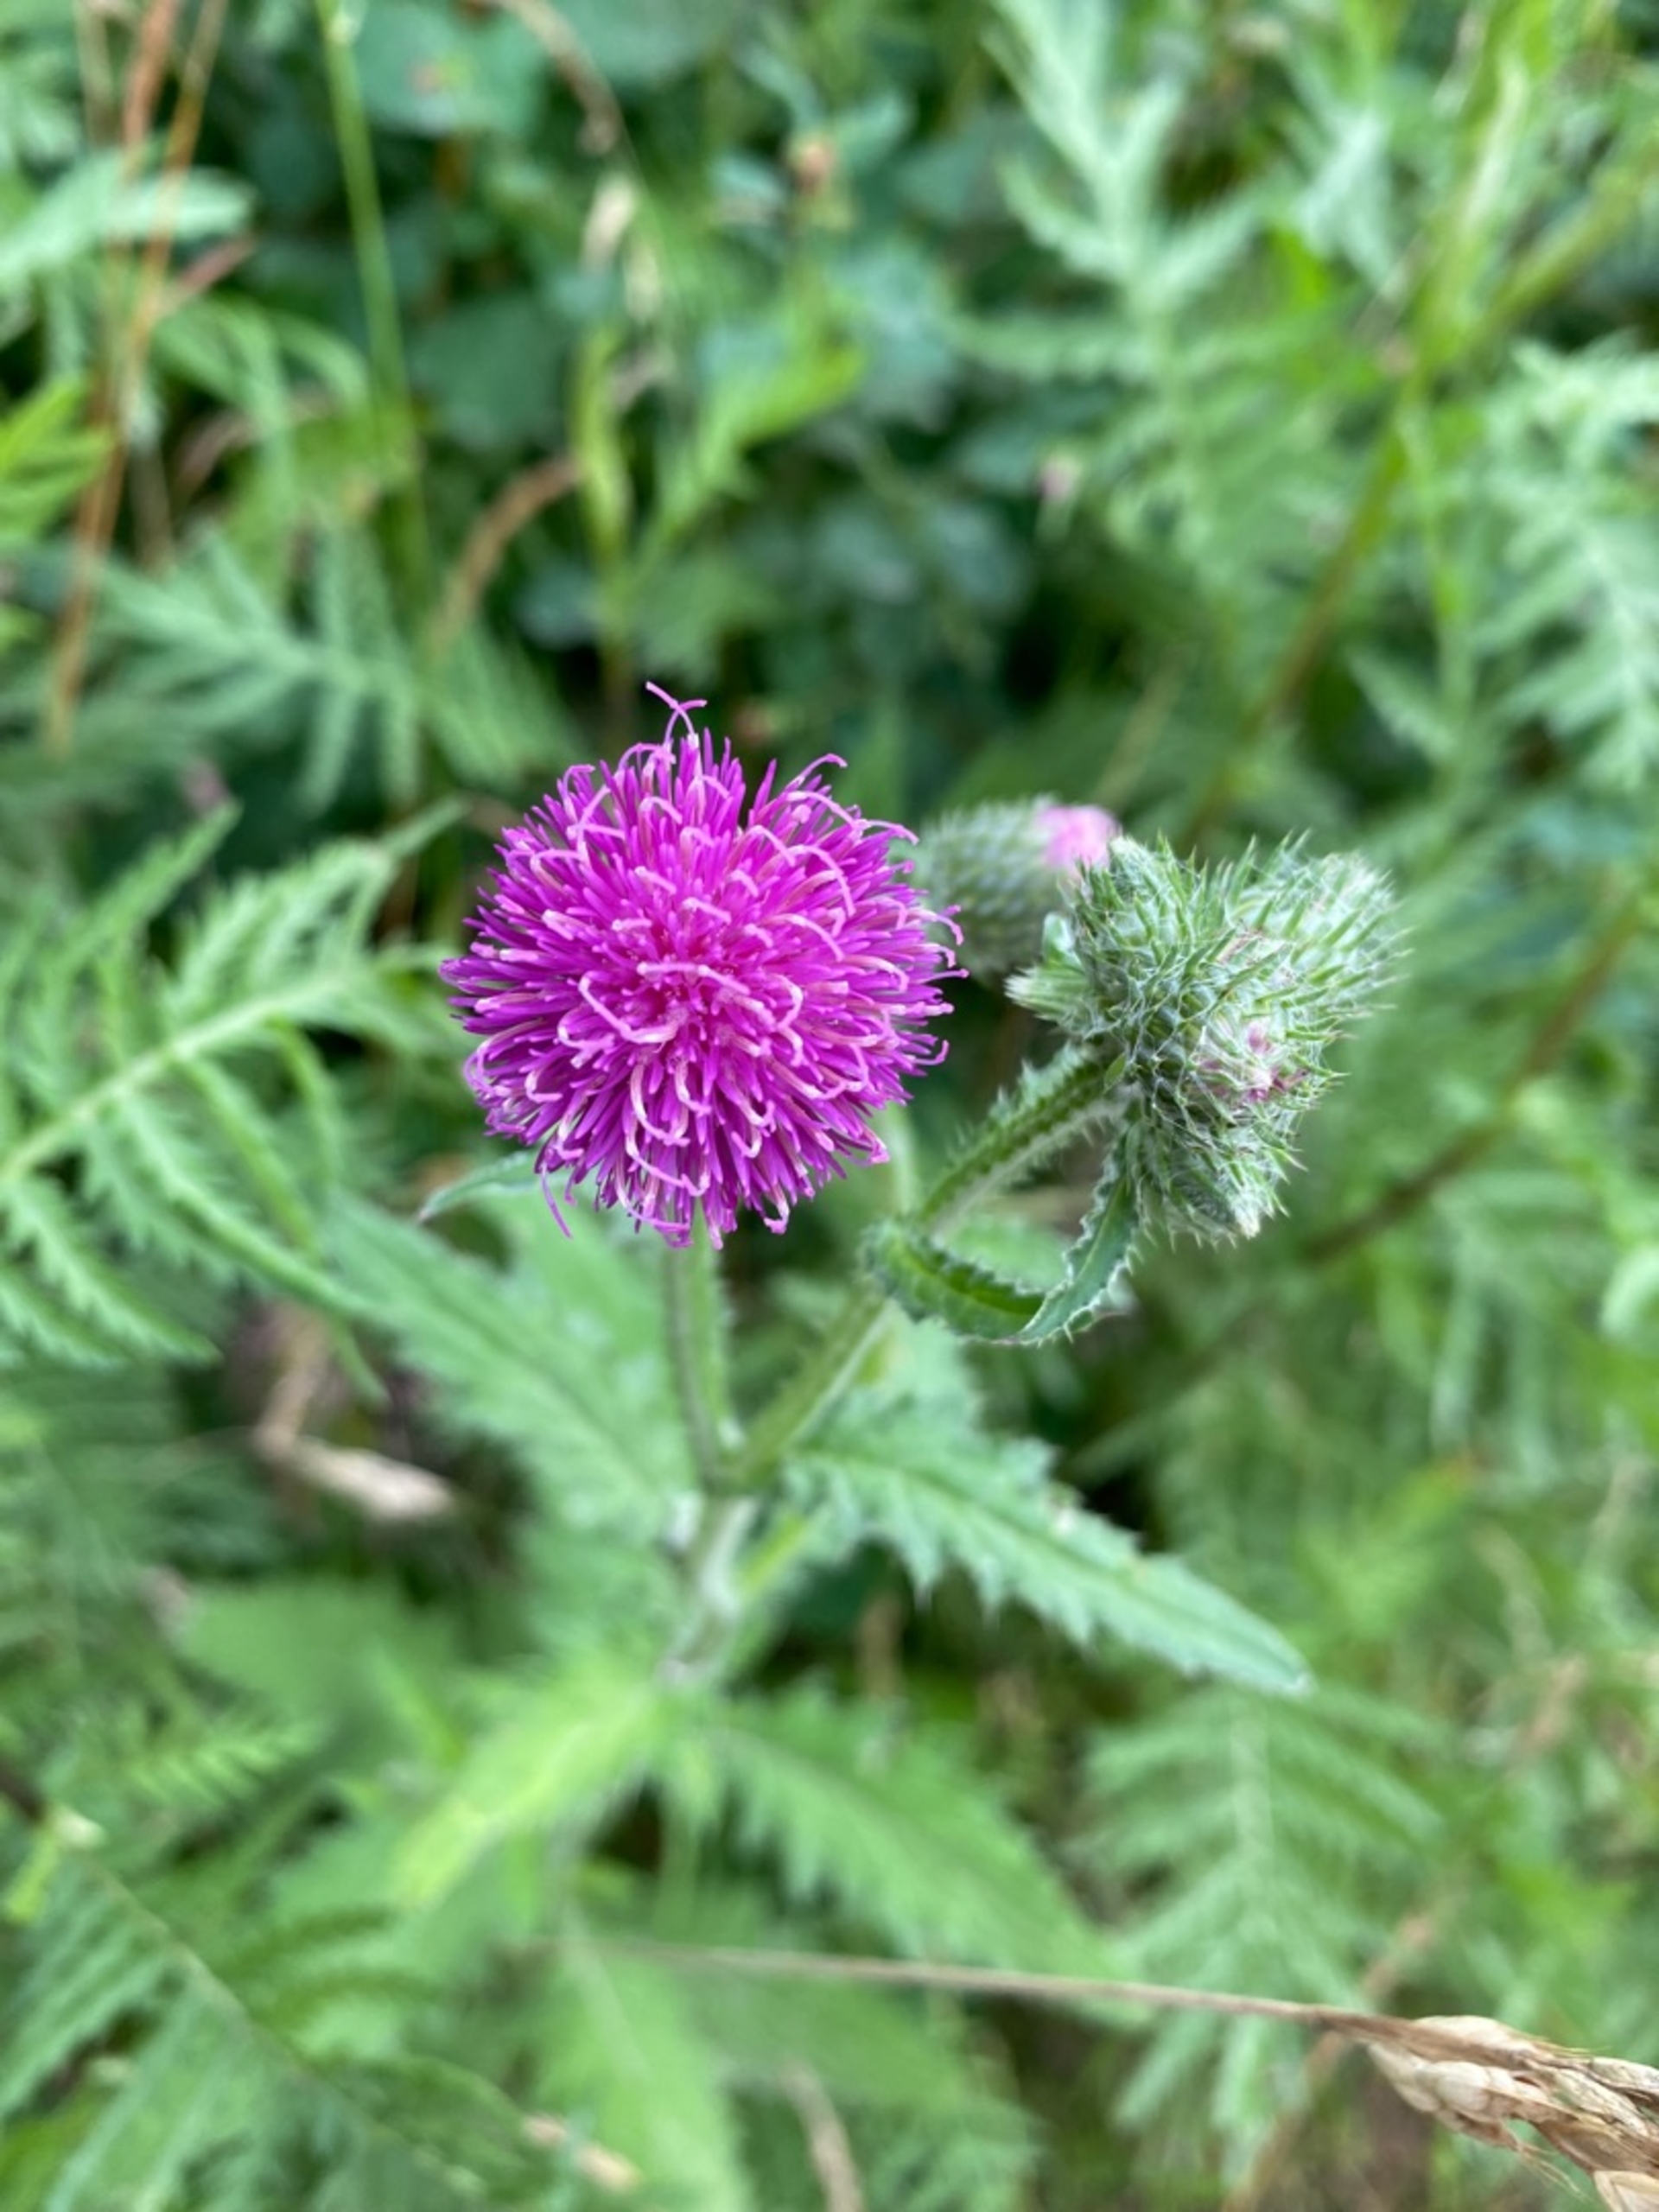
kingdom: Plantae
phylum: Tracheophyta
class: Magnoliopsida
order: Asterales
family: Asteraceae
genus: Carduus
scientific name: Carduus crispus
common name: Kruset tidsel
